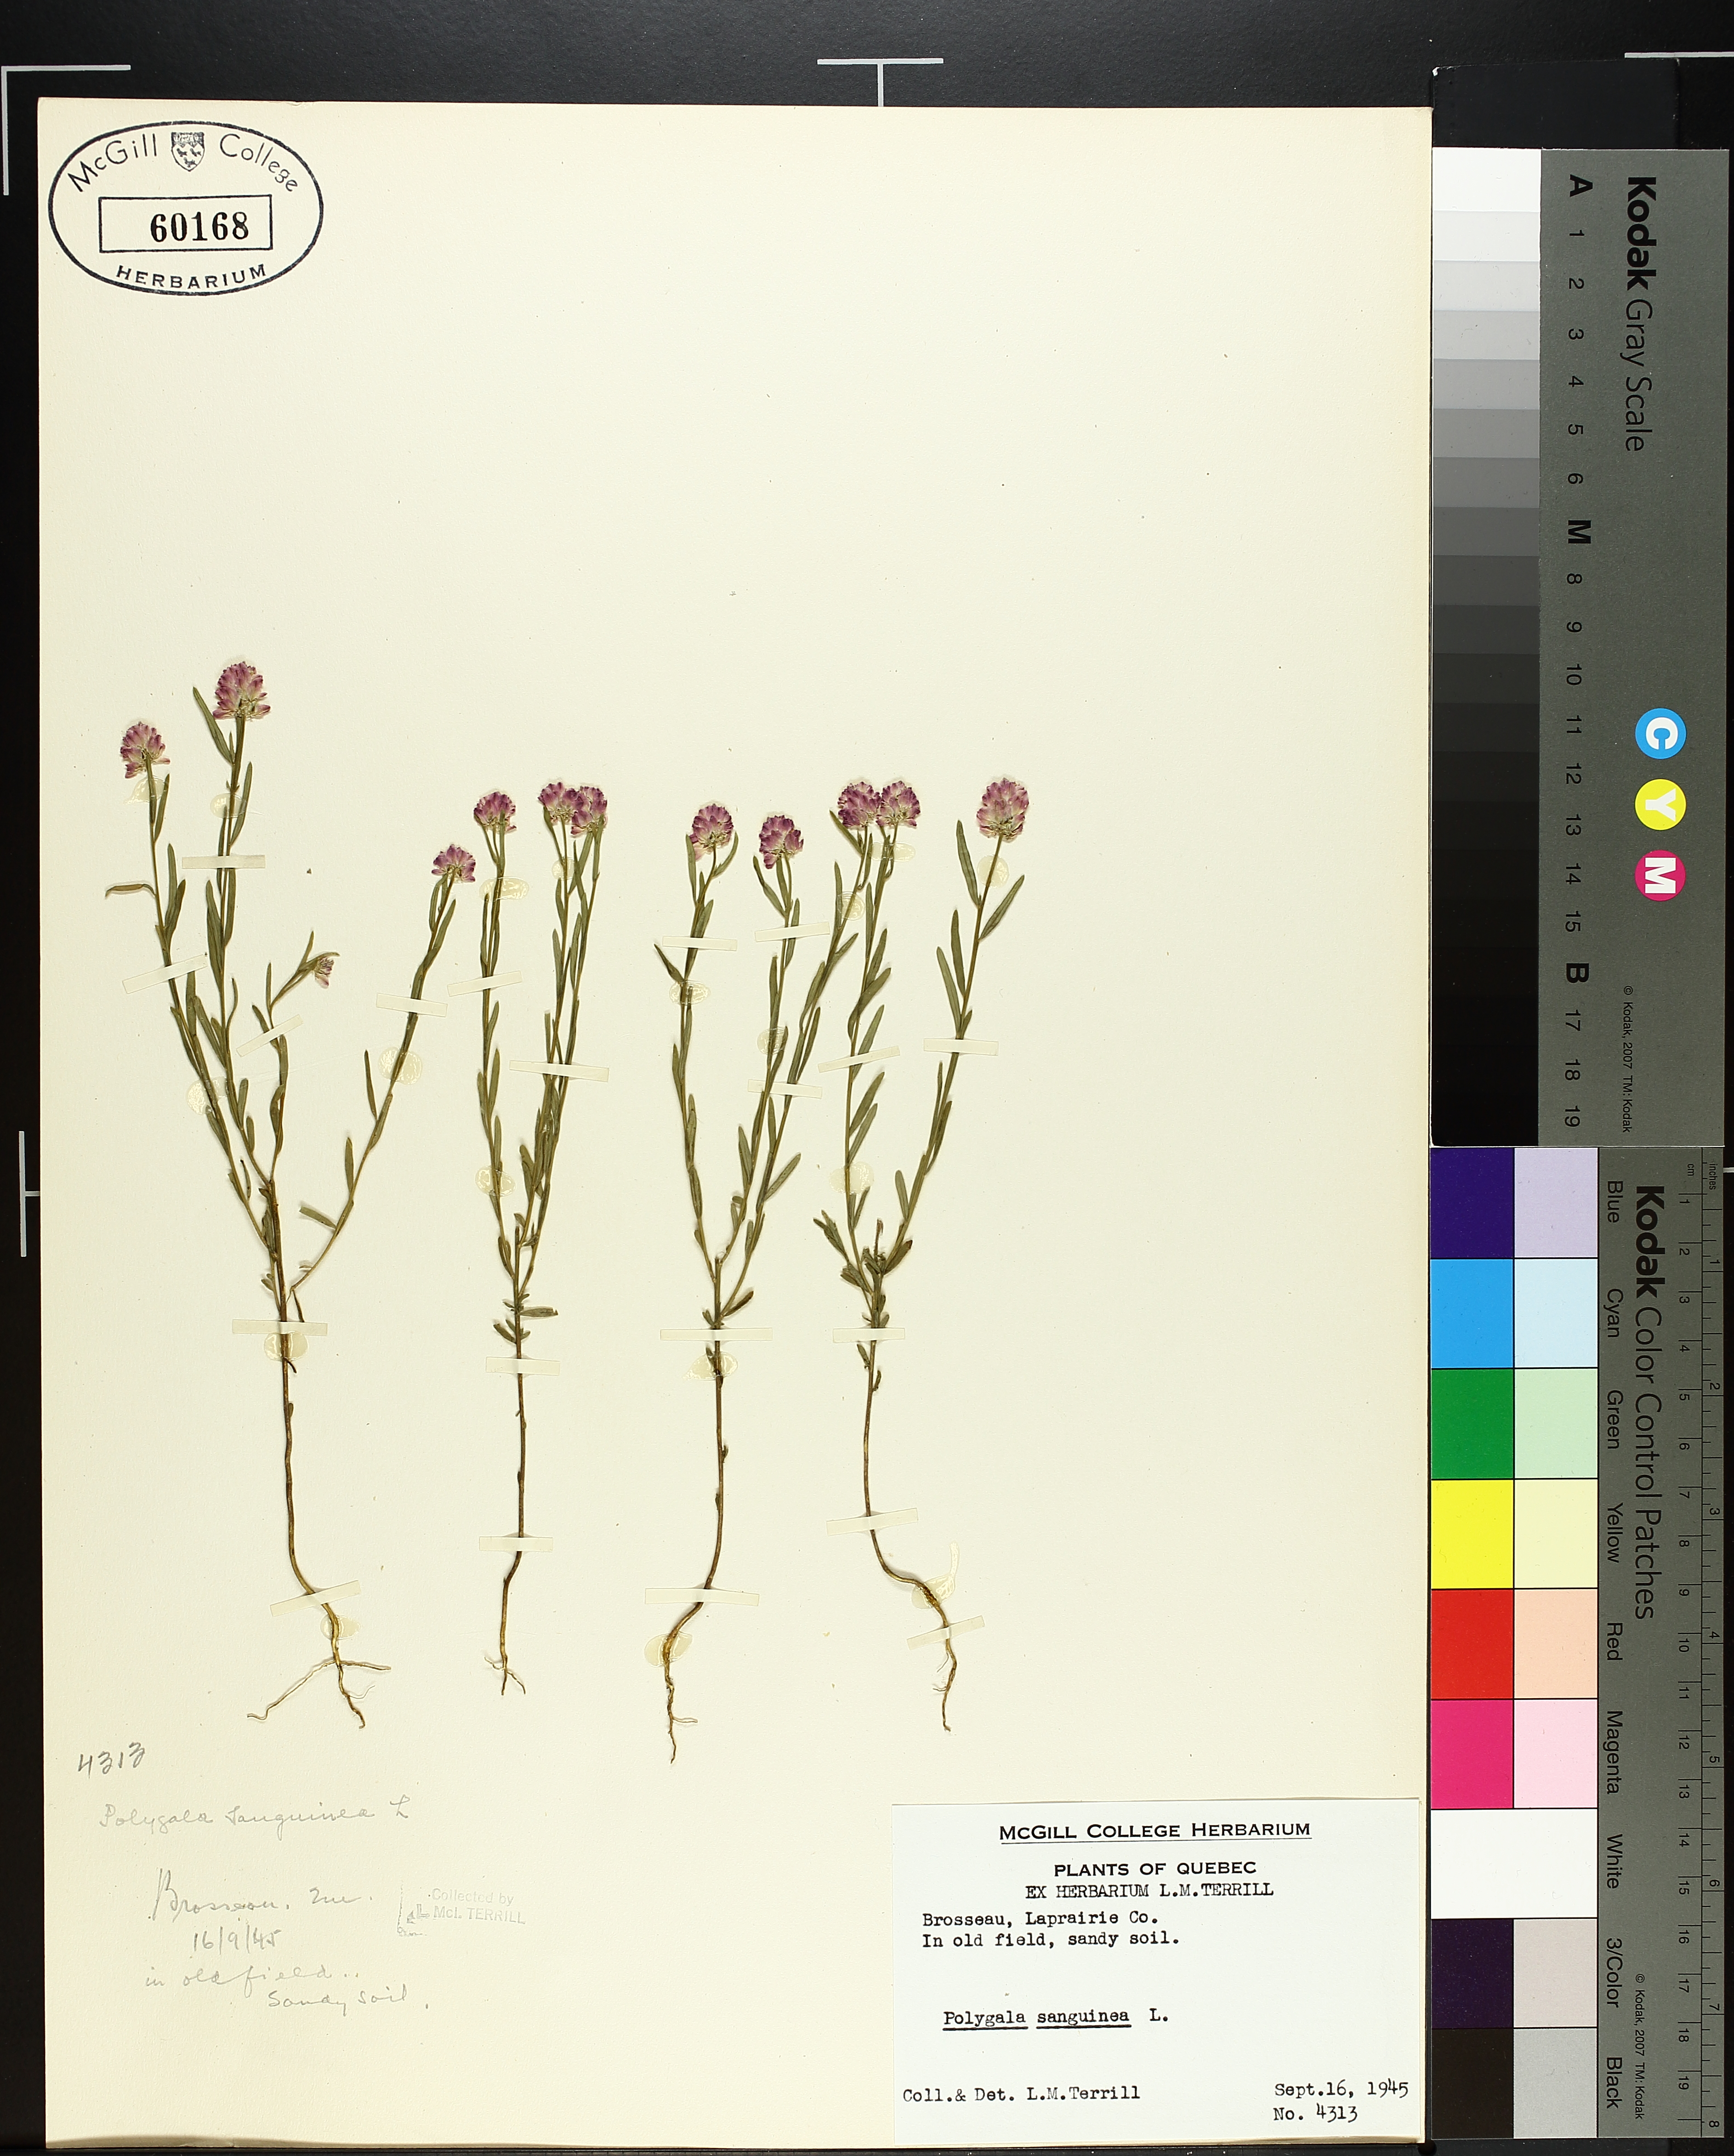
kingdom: Plantae
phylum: Tracheophyta
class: Liliopsida
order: Asparagales
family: Asparagaceae
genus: Maianthemum
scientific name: Maianthemum stellatum
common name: Little false solomon's seal
